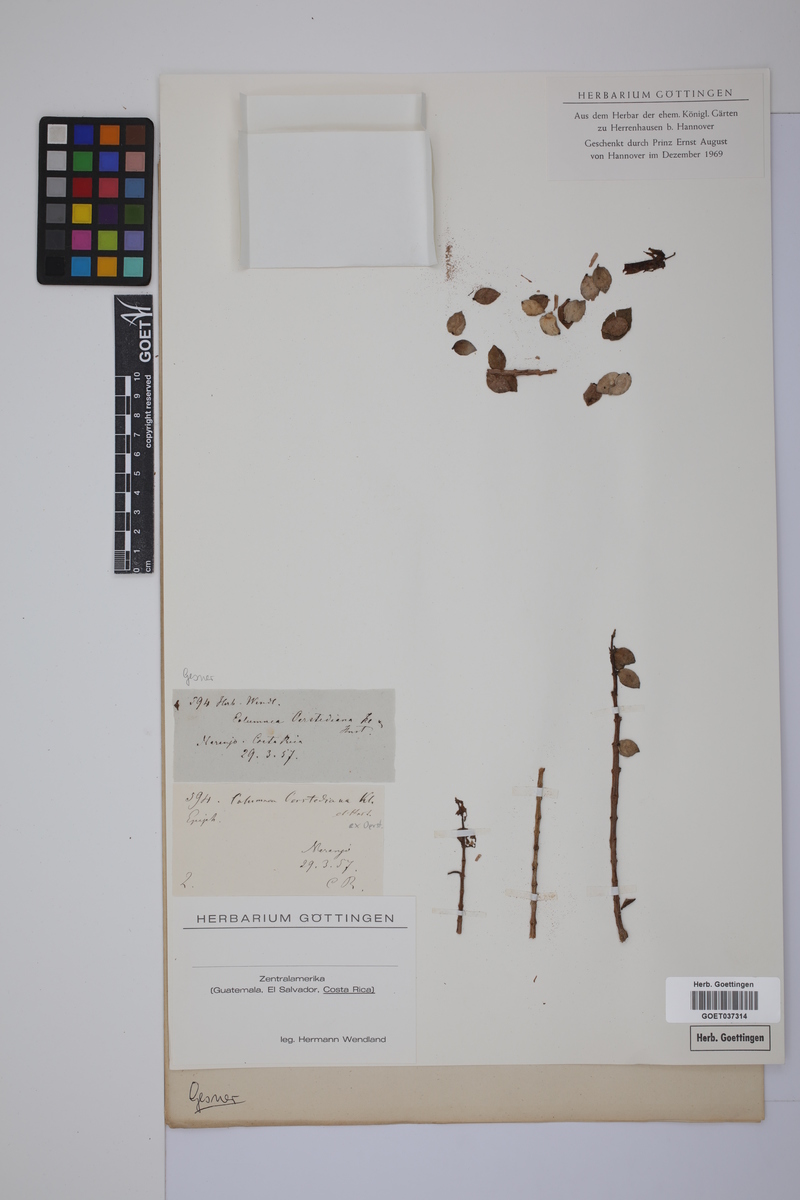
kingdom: Plantae
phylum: Tracheophyta
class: Magnoliopsida
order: Lamiales
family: Gesneriaceae
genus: Columnea
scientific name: Columnea oerstediana
